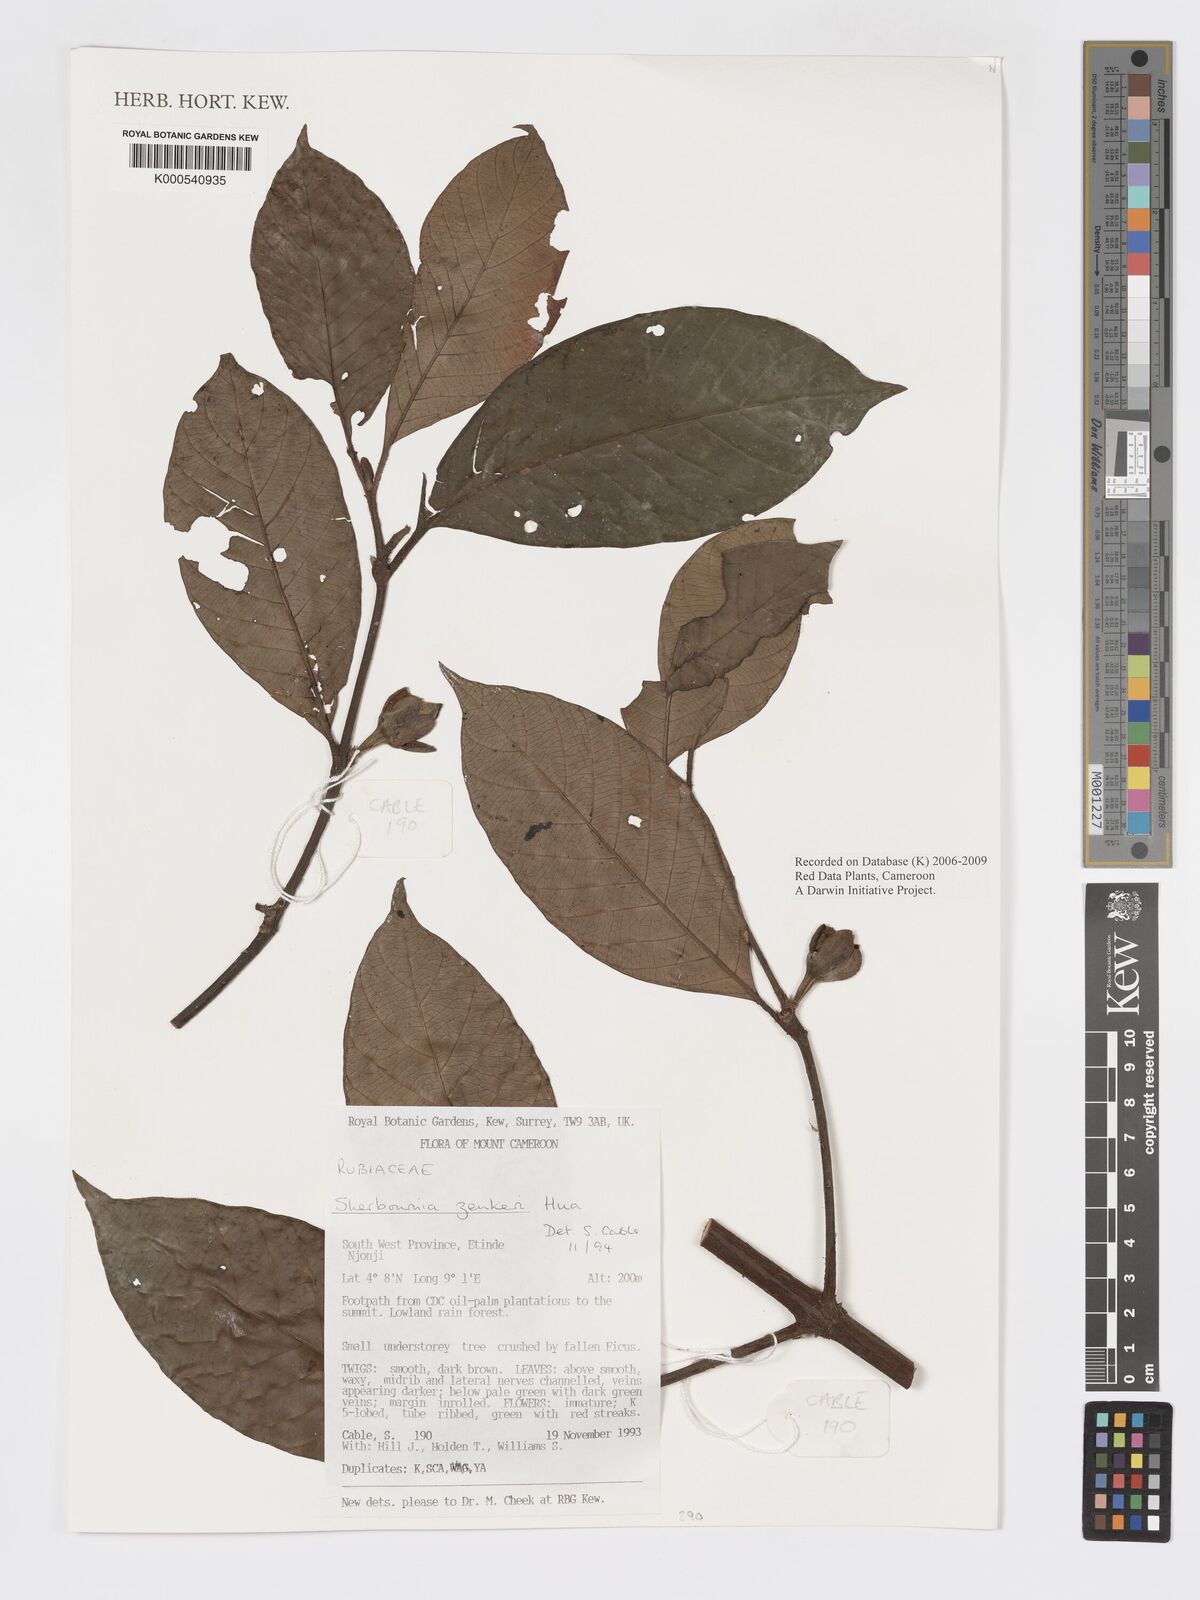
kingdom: Plantae
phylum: Tracheophyta
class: Magnoliopsida
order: Gentianales
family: Rubiaceae
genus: Sherbournia
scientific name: Sherbournia zenkeri
